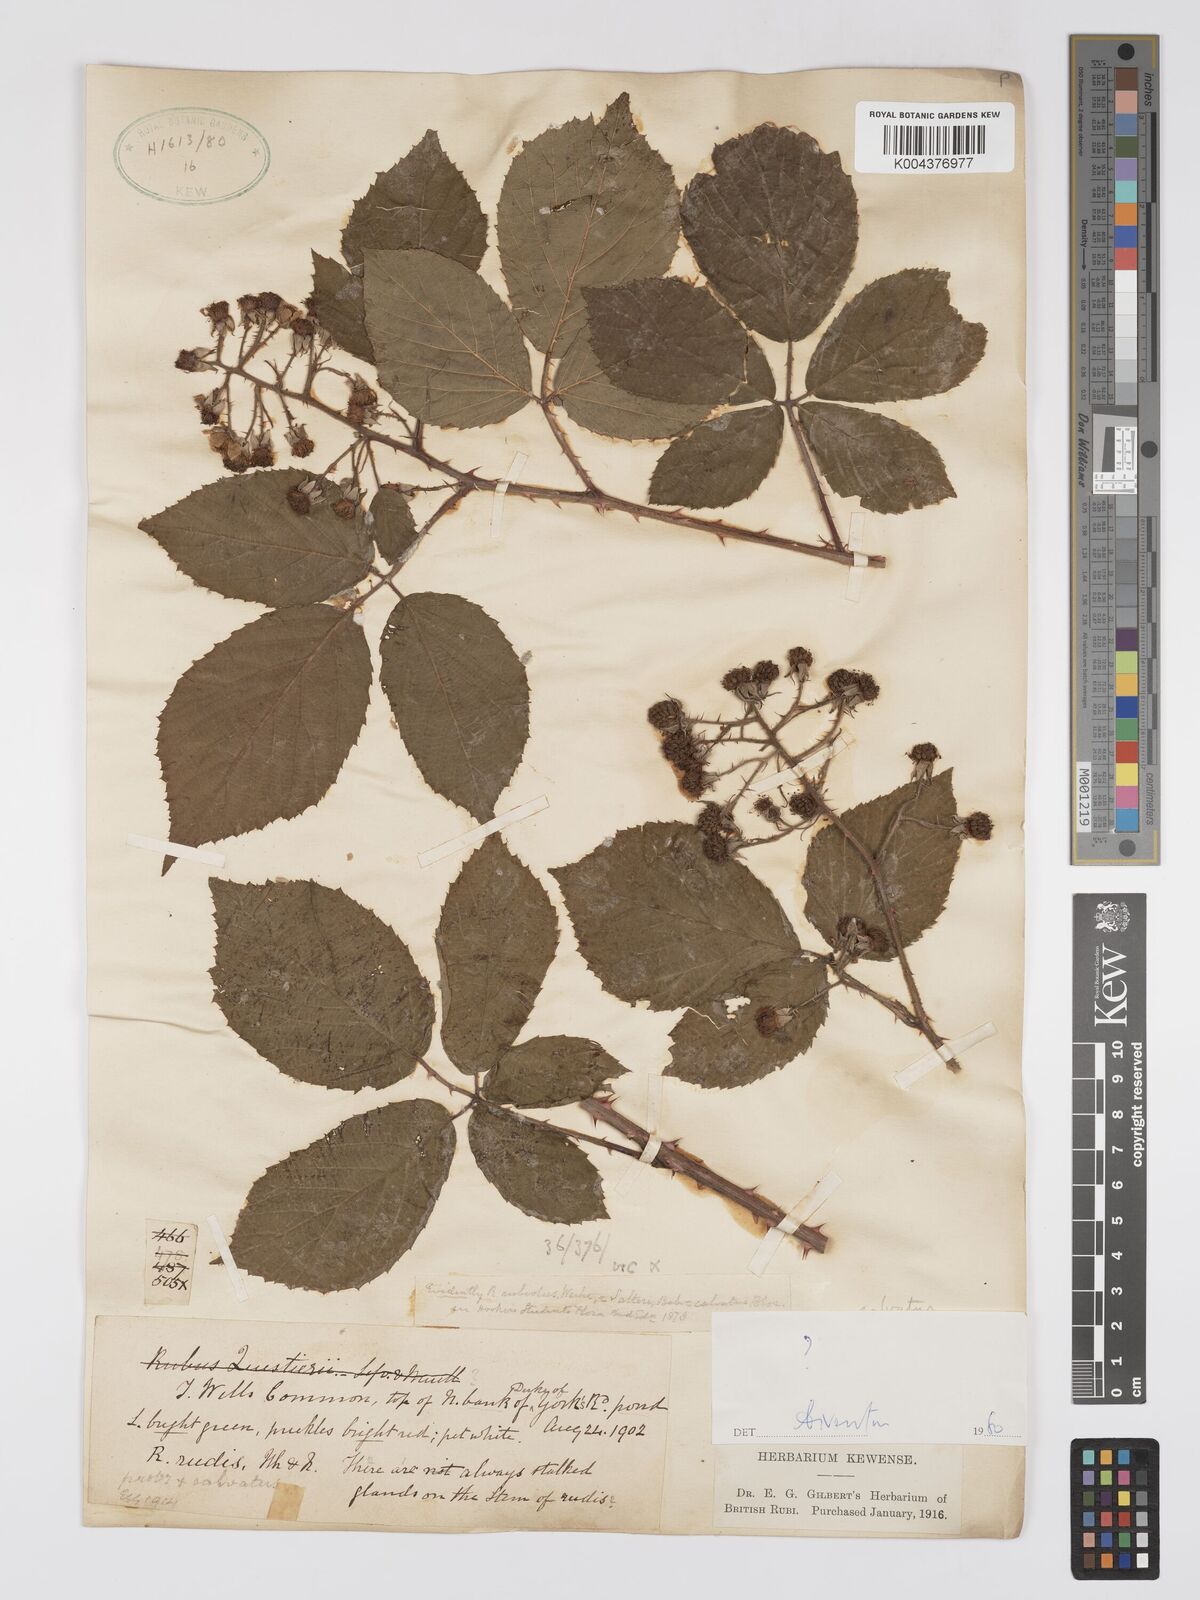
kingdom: Plantae
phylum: Tracheophyta
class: Magnoliopsida
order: Rosales
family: Rosaceae
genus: Rubus
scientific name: Rubus calvatus
